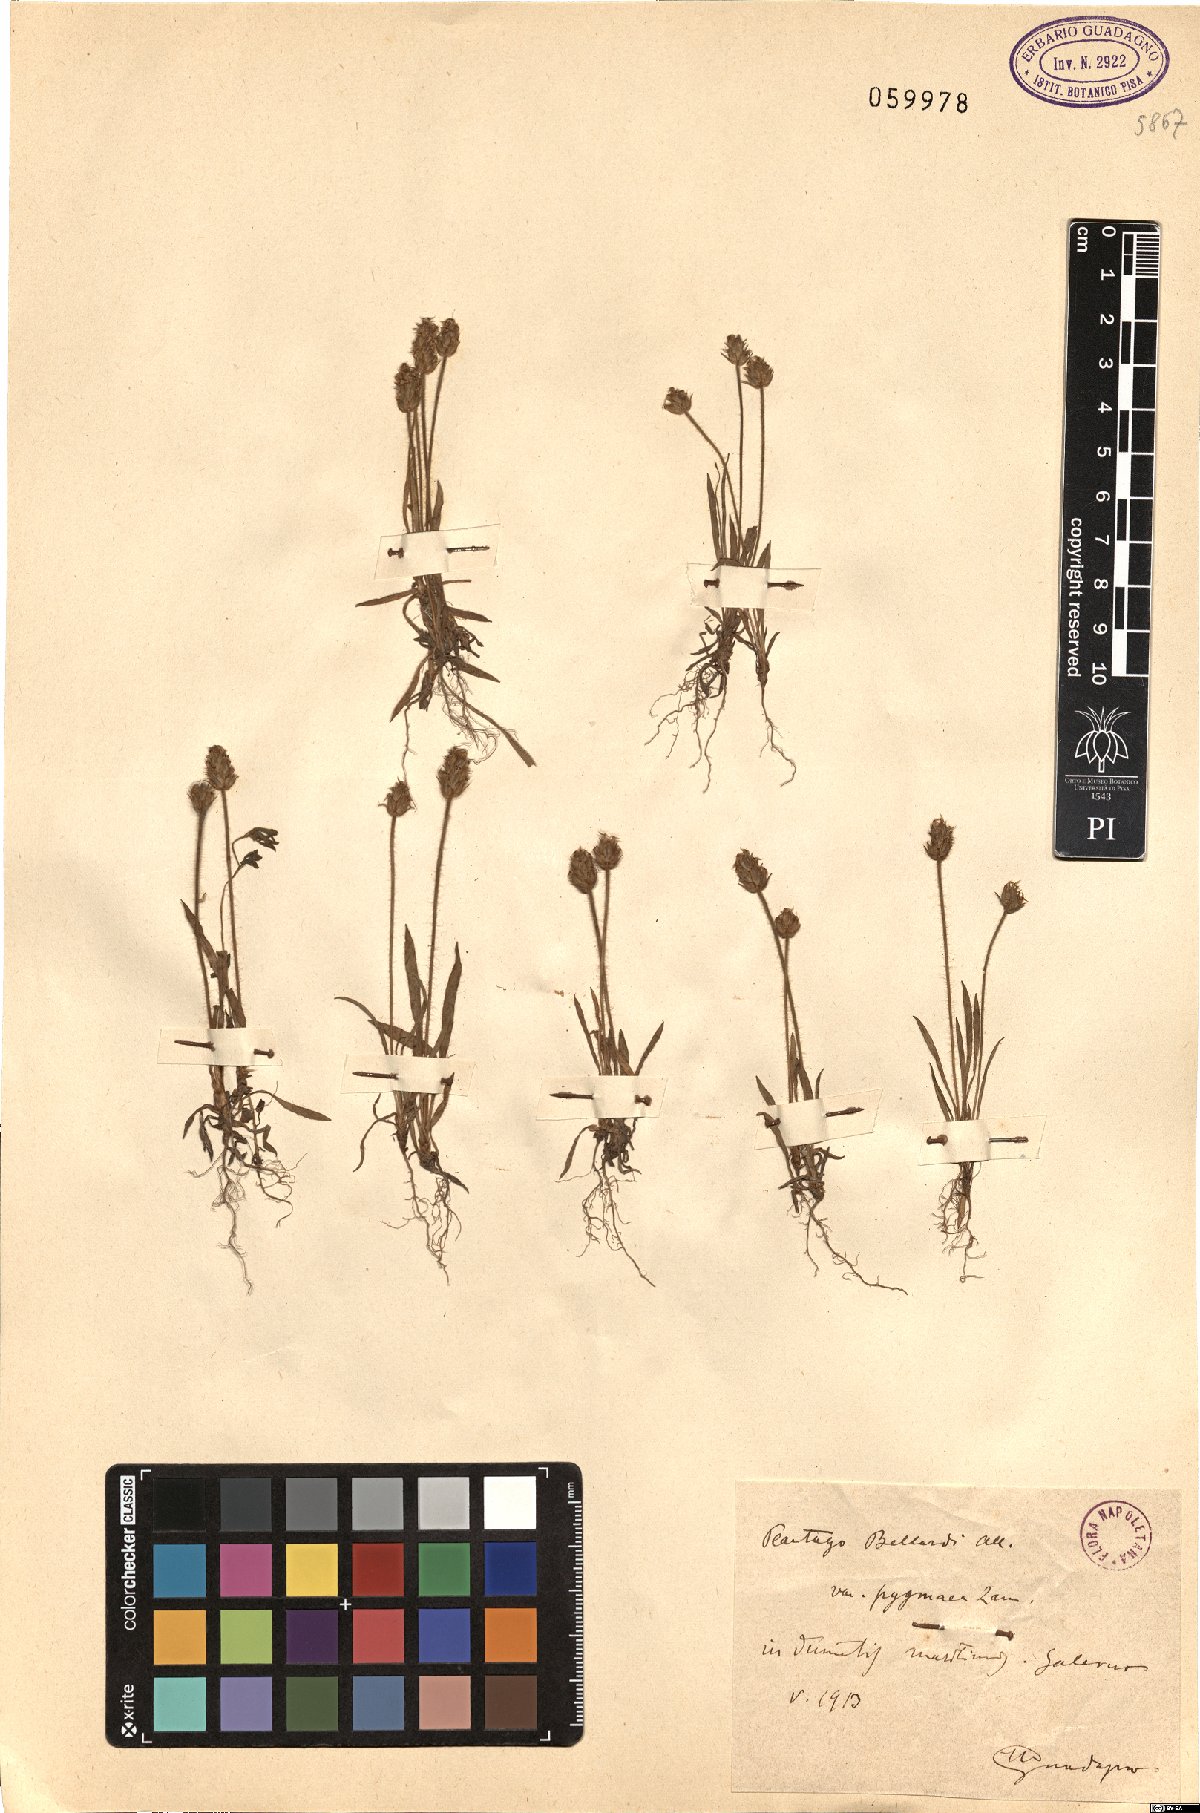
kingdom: Plantae
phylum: Tracheophyta
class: Magnoliopsida
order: Lamiales
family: Plantaginaceae
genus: Plantago
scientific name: Plantago bellardii
